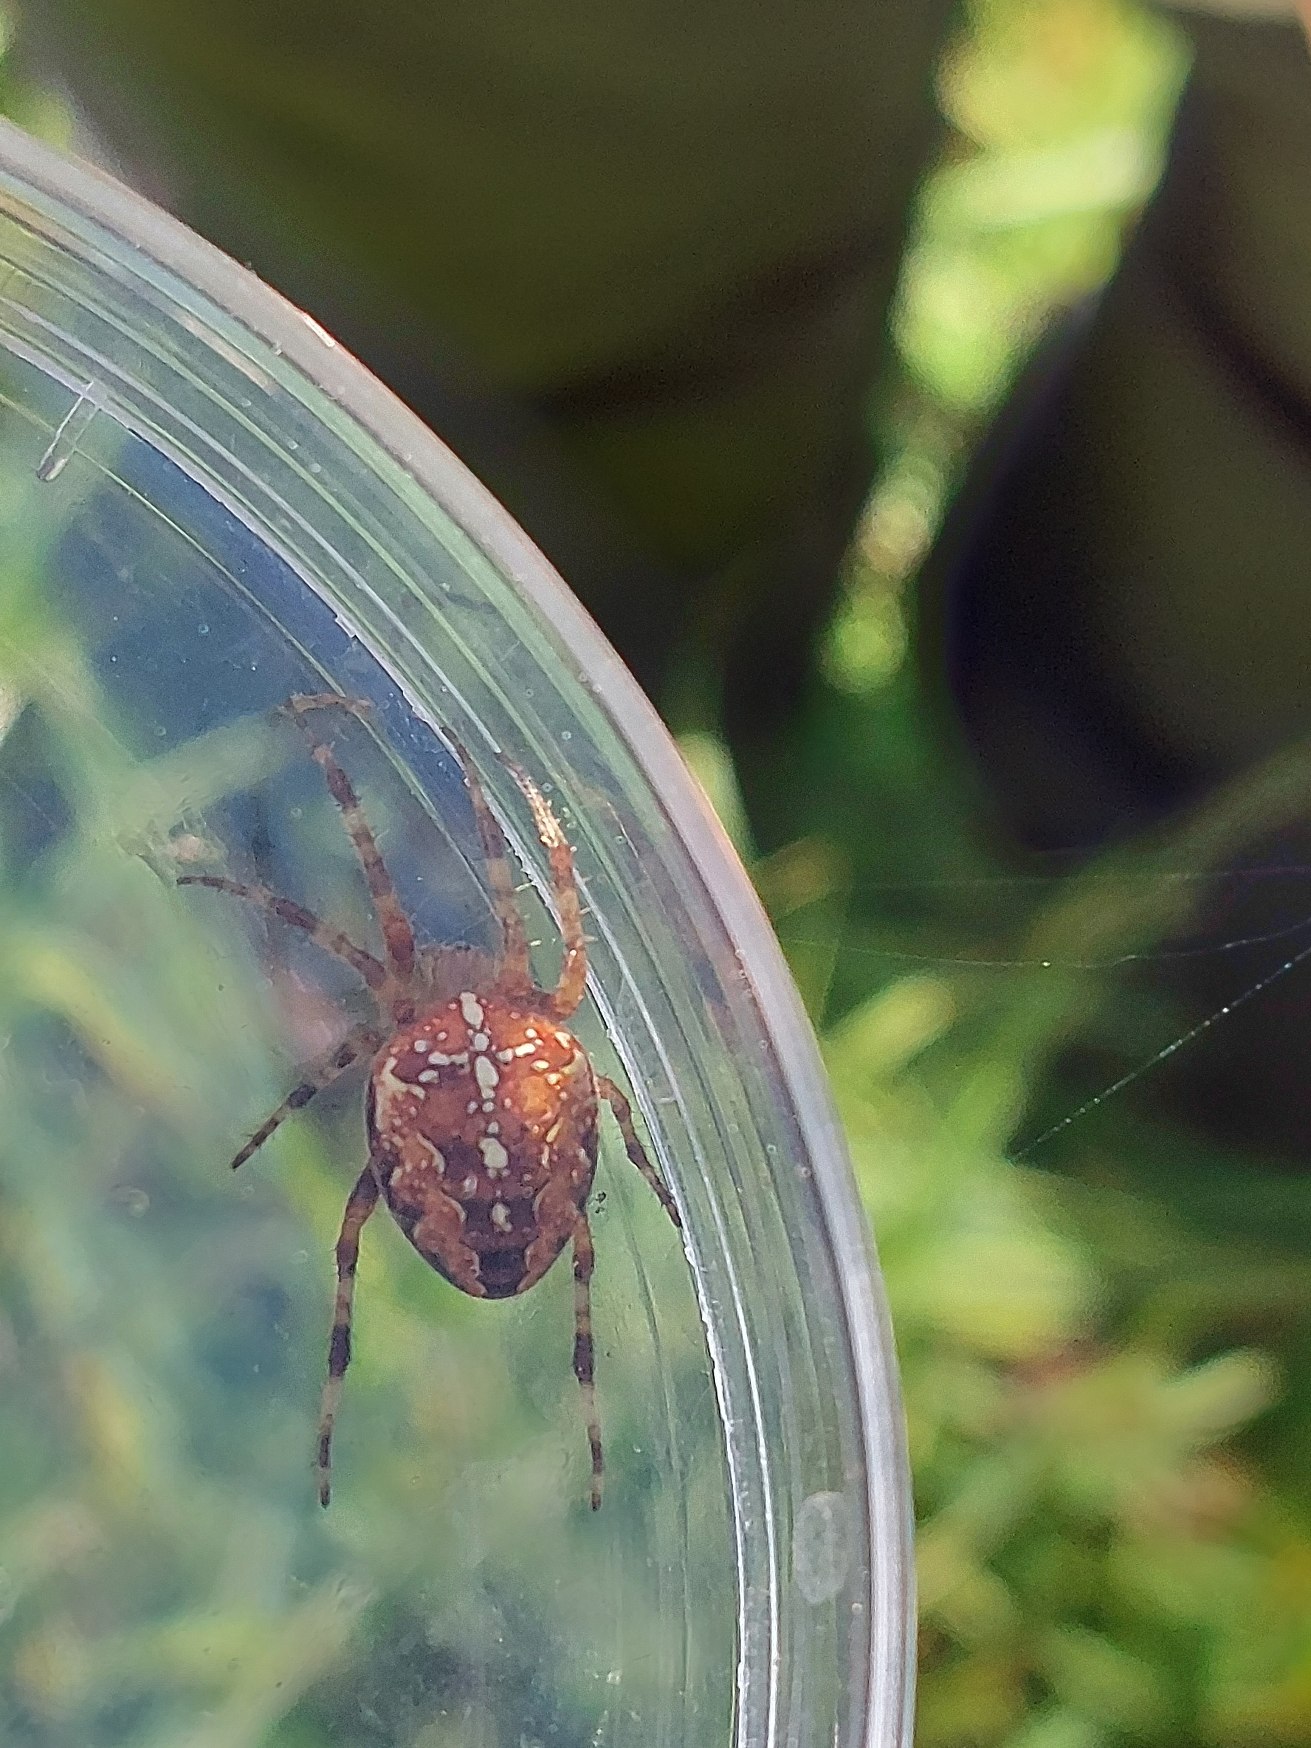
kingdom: Animalia
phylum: Arthropoda
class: Arachnida
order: Araneae
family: Araneidae
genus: Araneus
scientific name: Araneus diadematus
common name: Korsedderkop
